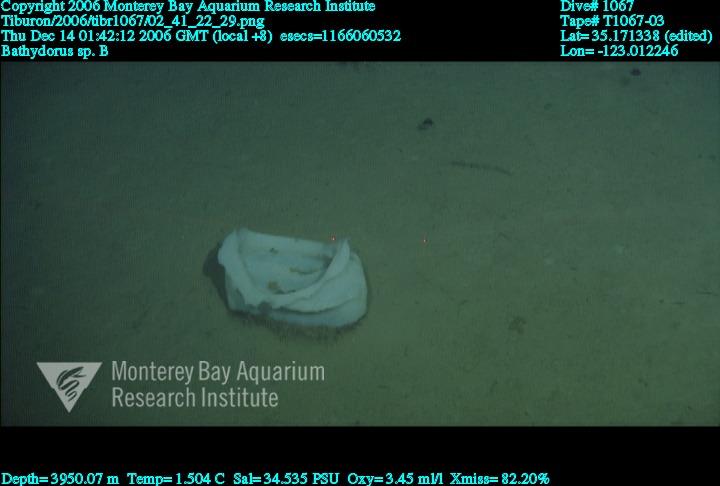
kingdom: Animalia
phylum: Porifera
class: Hexactinellida
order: Lyssacinosida
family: Rossellidae
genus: Bathydorus
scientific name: Bathydorus
